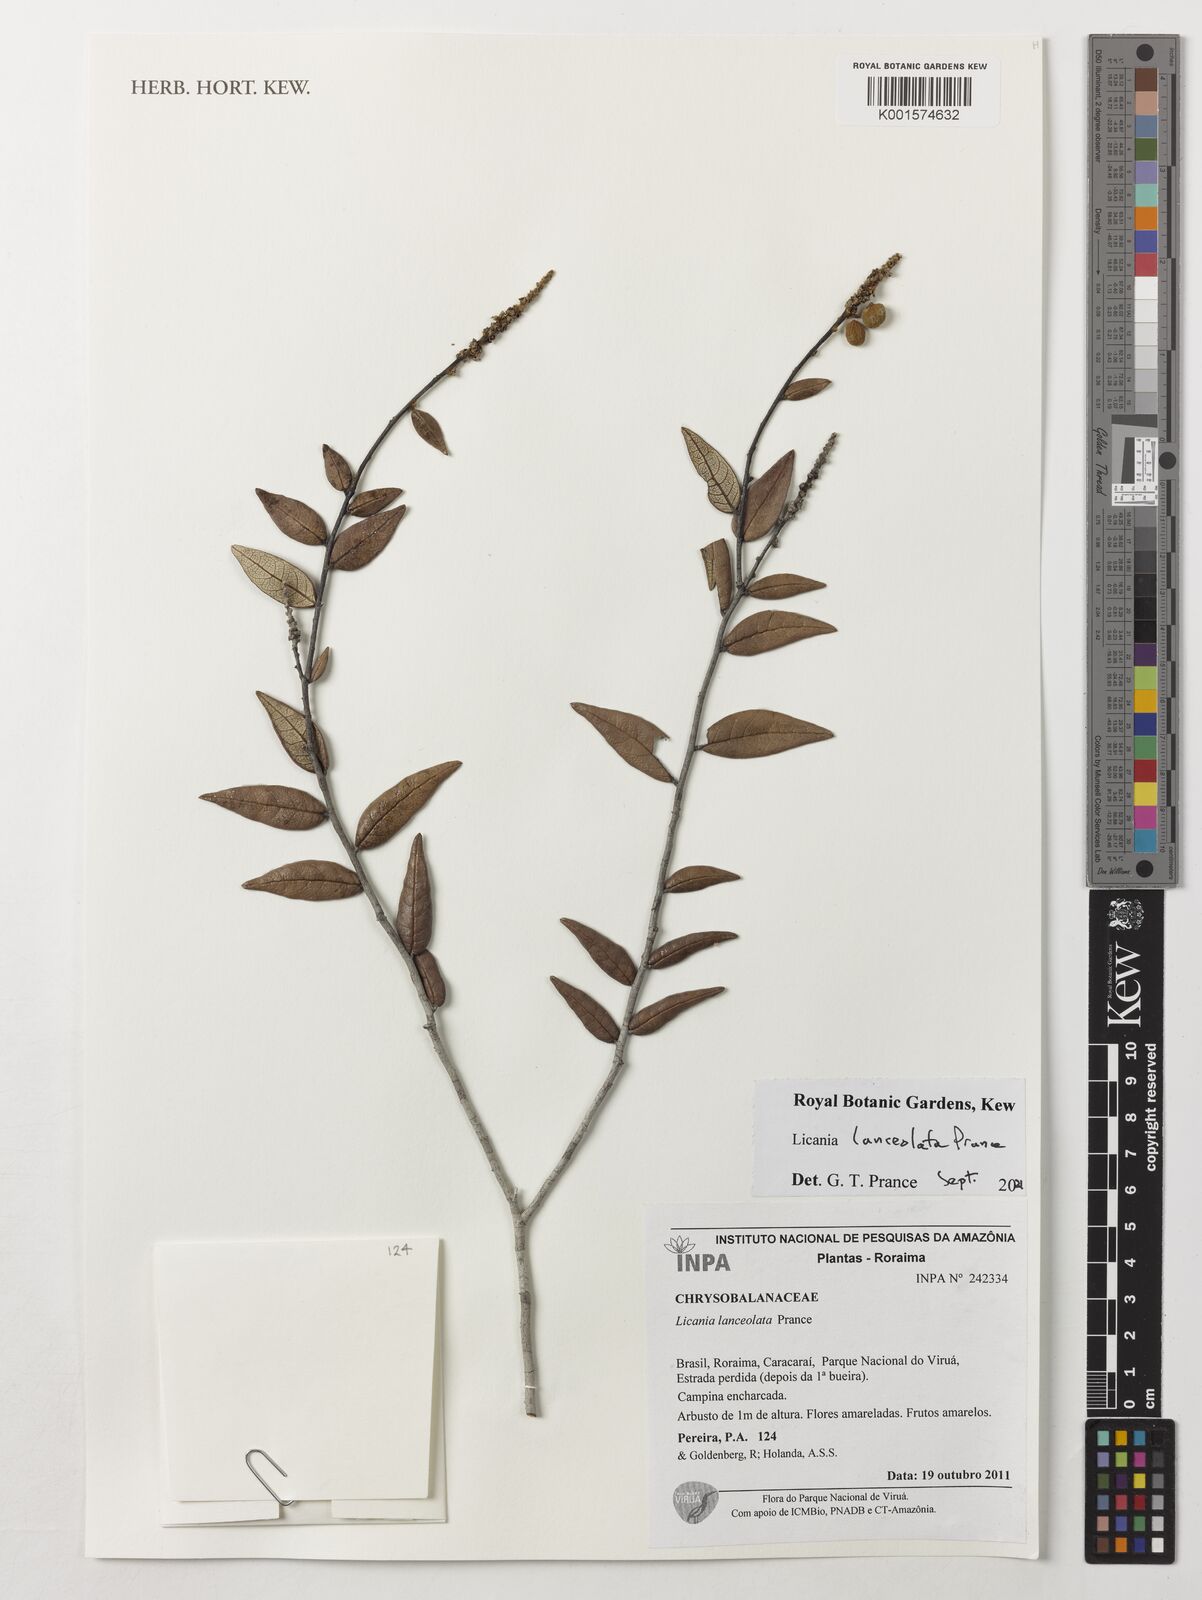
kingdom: Plantae
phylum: Tracheophyta
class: Magnoliopsida
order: Malpighiales
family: Chrysobalanaceae
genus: Licania
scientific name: Licania lanceolata
